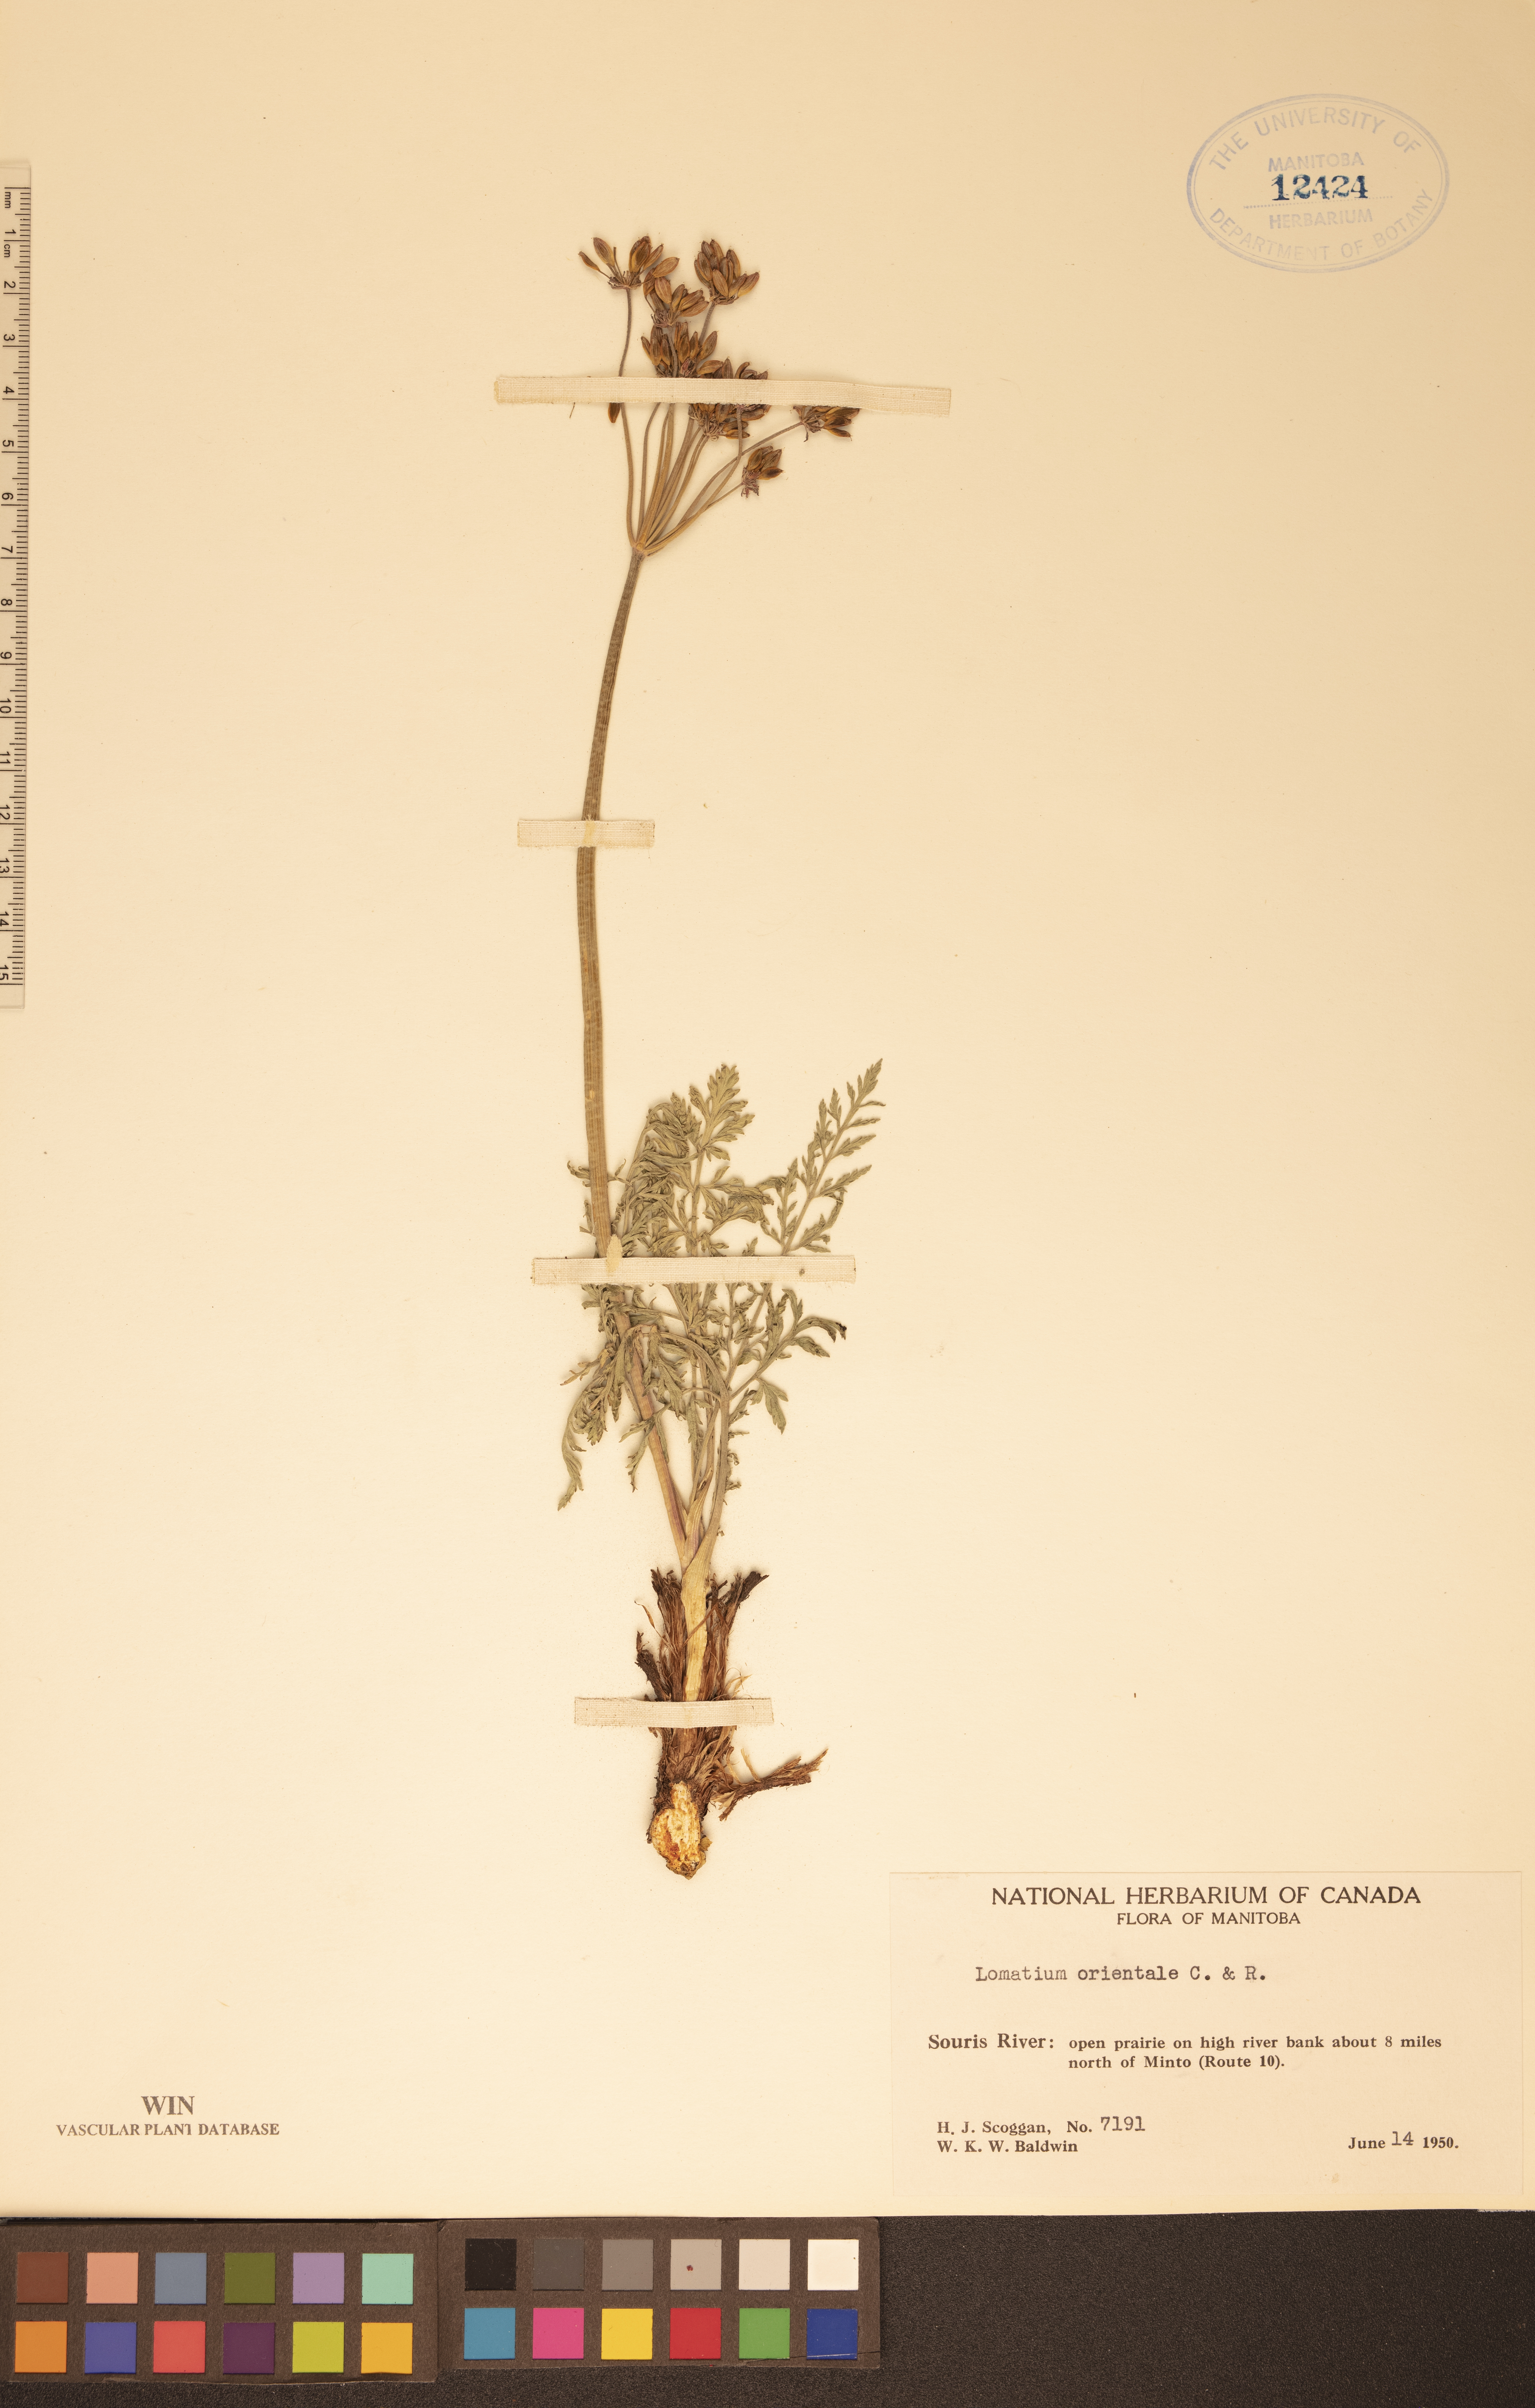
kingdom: Plantae
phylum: Tracheophyta
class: Magnoliopsida
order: Apiales
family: Apiaceae
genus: Lomatium
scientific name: Lomatium orientale
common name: Eastern cous
